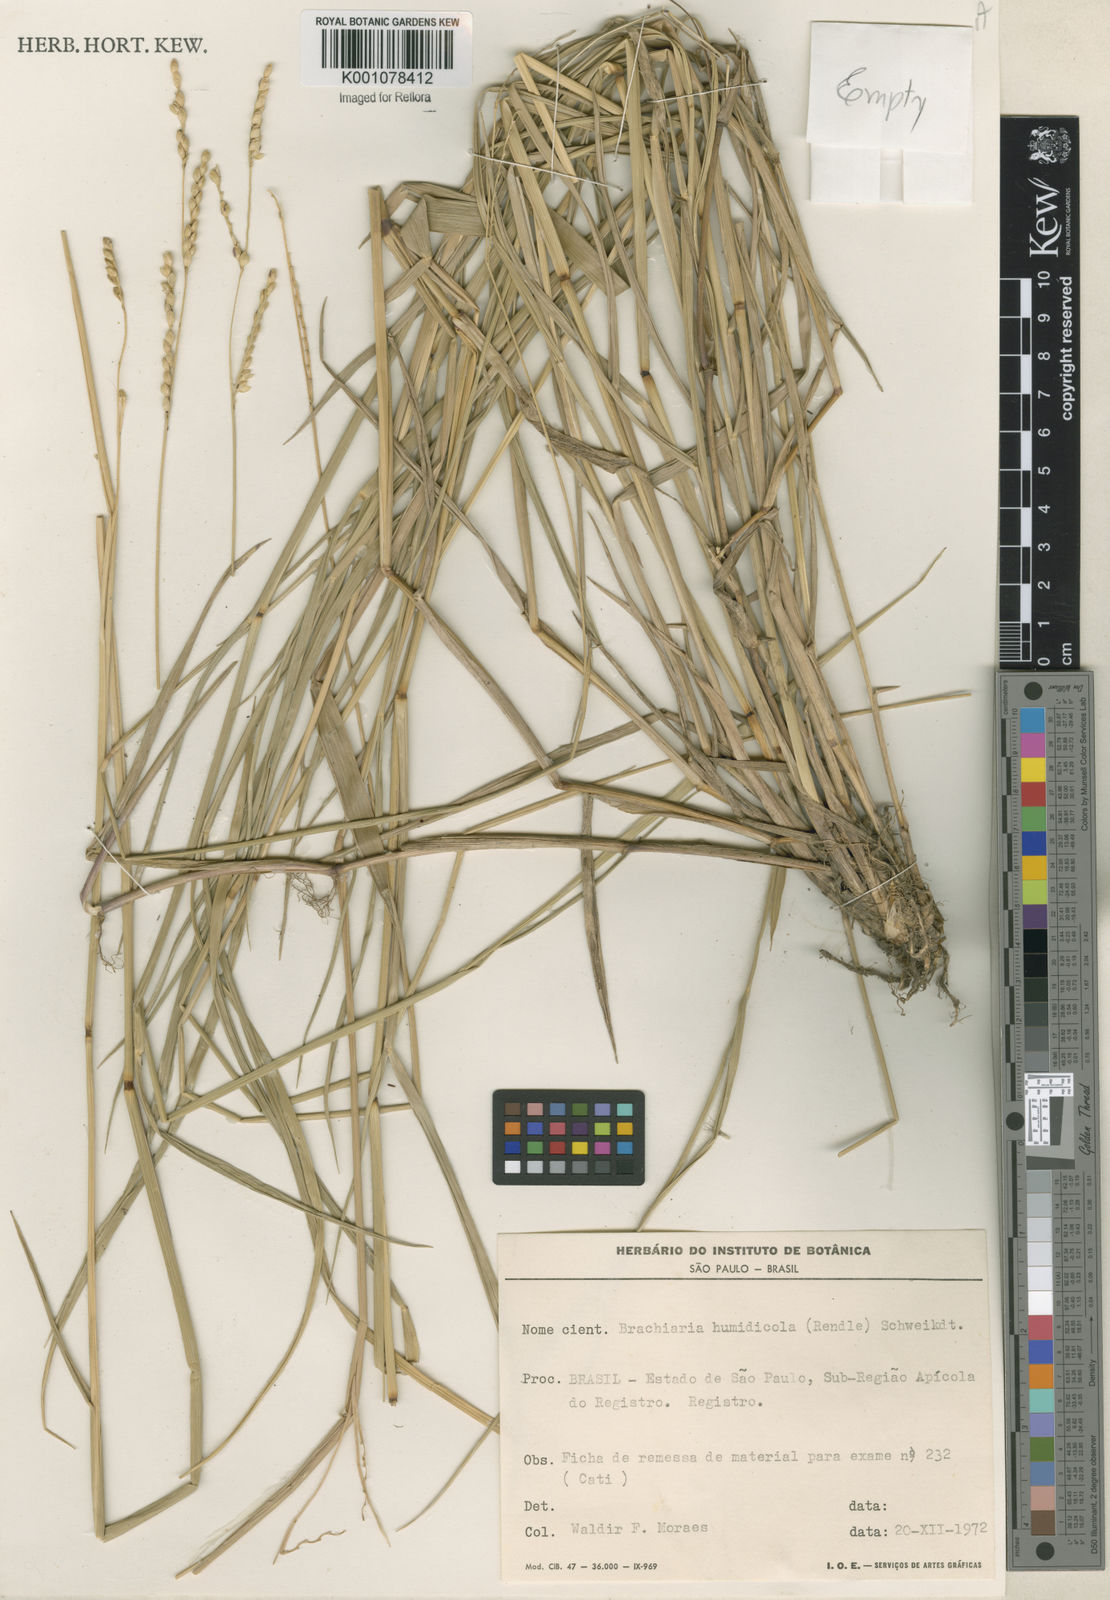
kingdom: Plantae
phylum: Tracheophyta
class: Liliopsida
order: Poales
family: Poaceae
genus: Urochloa
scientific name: Urochloa dictyoneura
